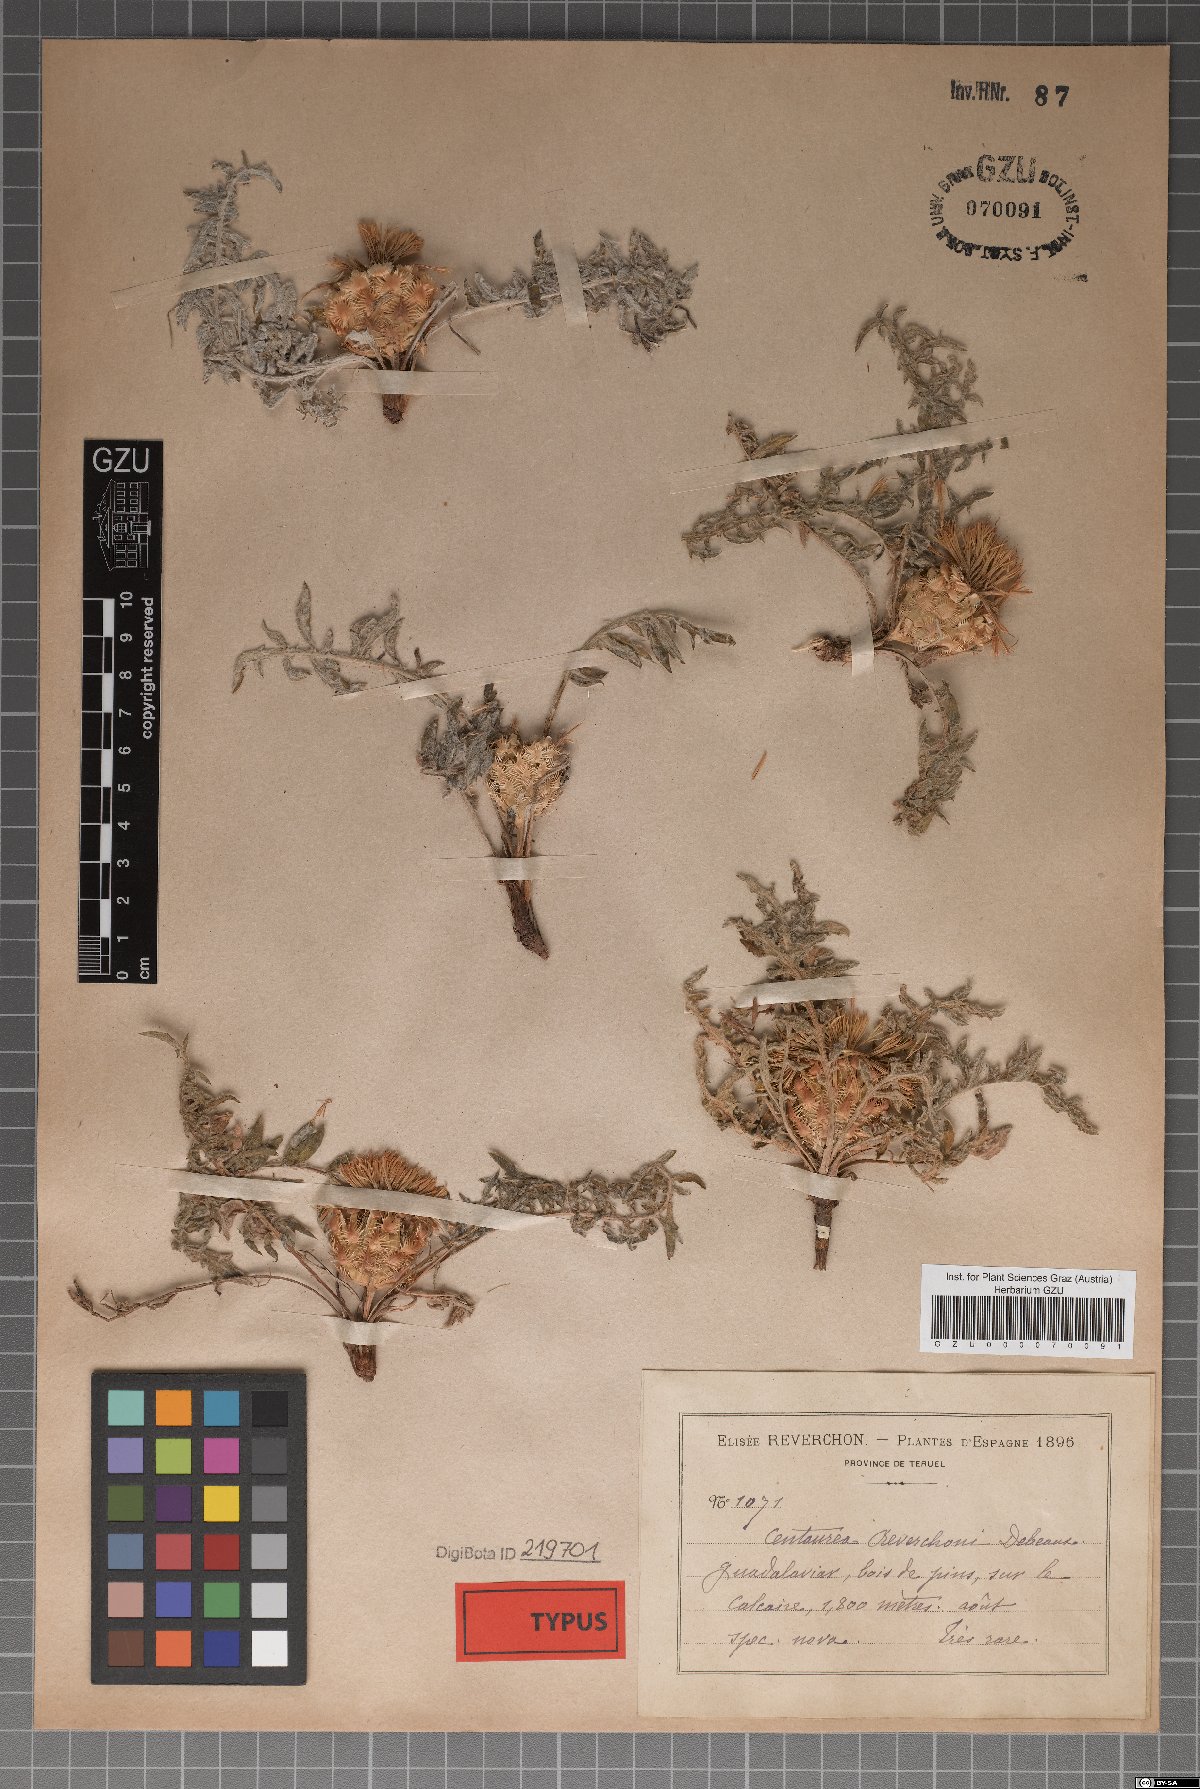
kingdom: Plantae
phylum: Tracheophyta
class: Magnoliopsida
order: Asterales
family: Asteraceae
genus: Centaurea
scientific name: Centaurea reverchonii
